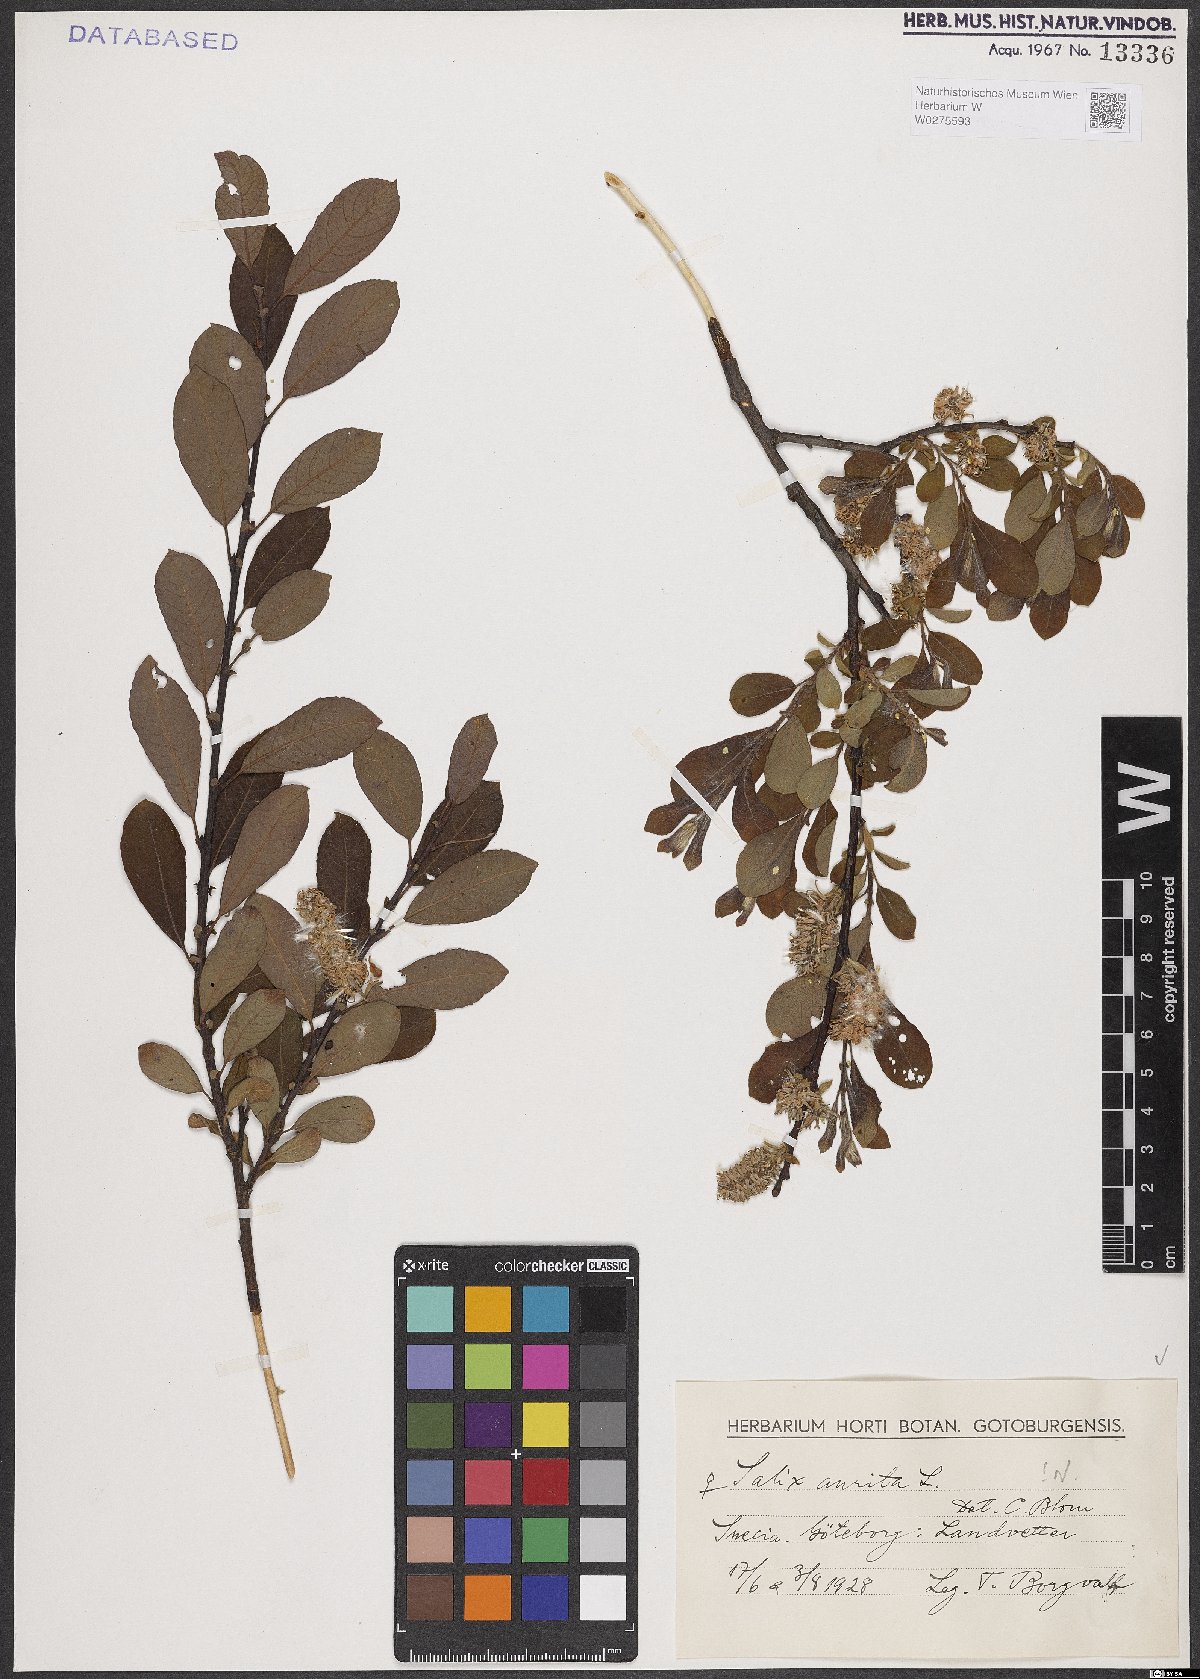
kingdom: Plantae
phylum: Tracheophyta
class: Magnoliopsida
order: Malpighiales
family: Salicaceae
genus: Salix
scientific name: Salix aurita
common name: Eared willow
